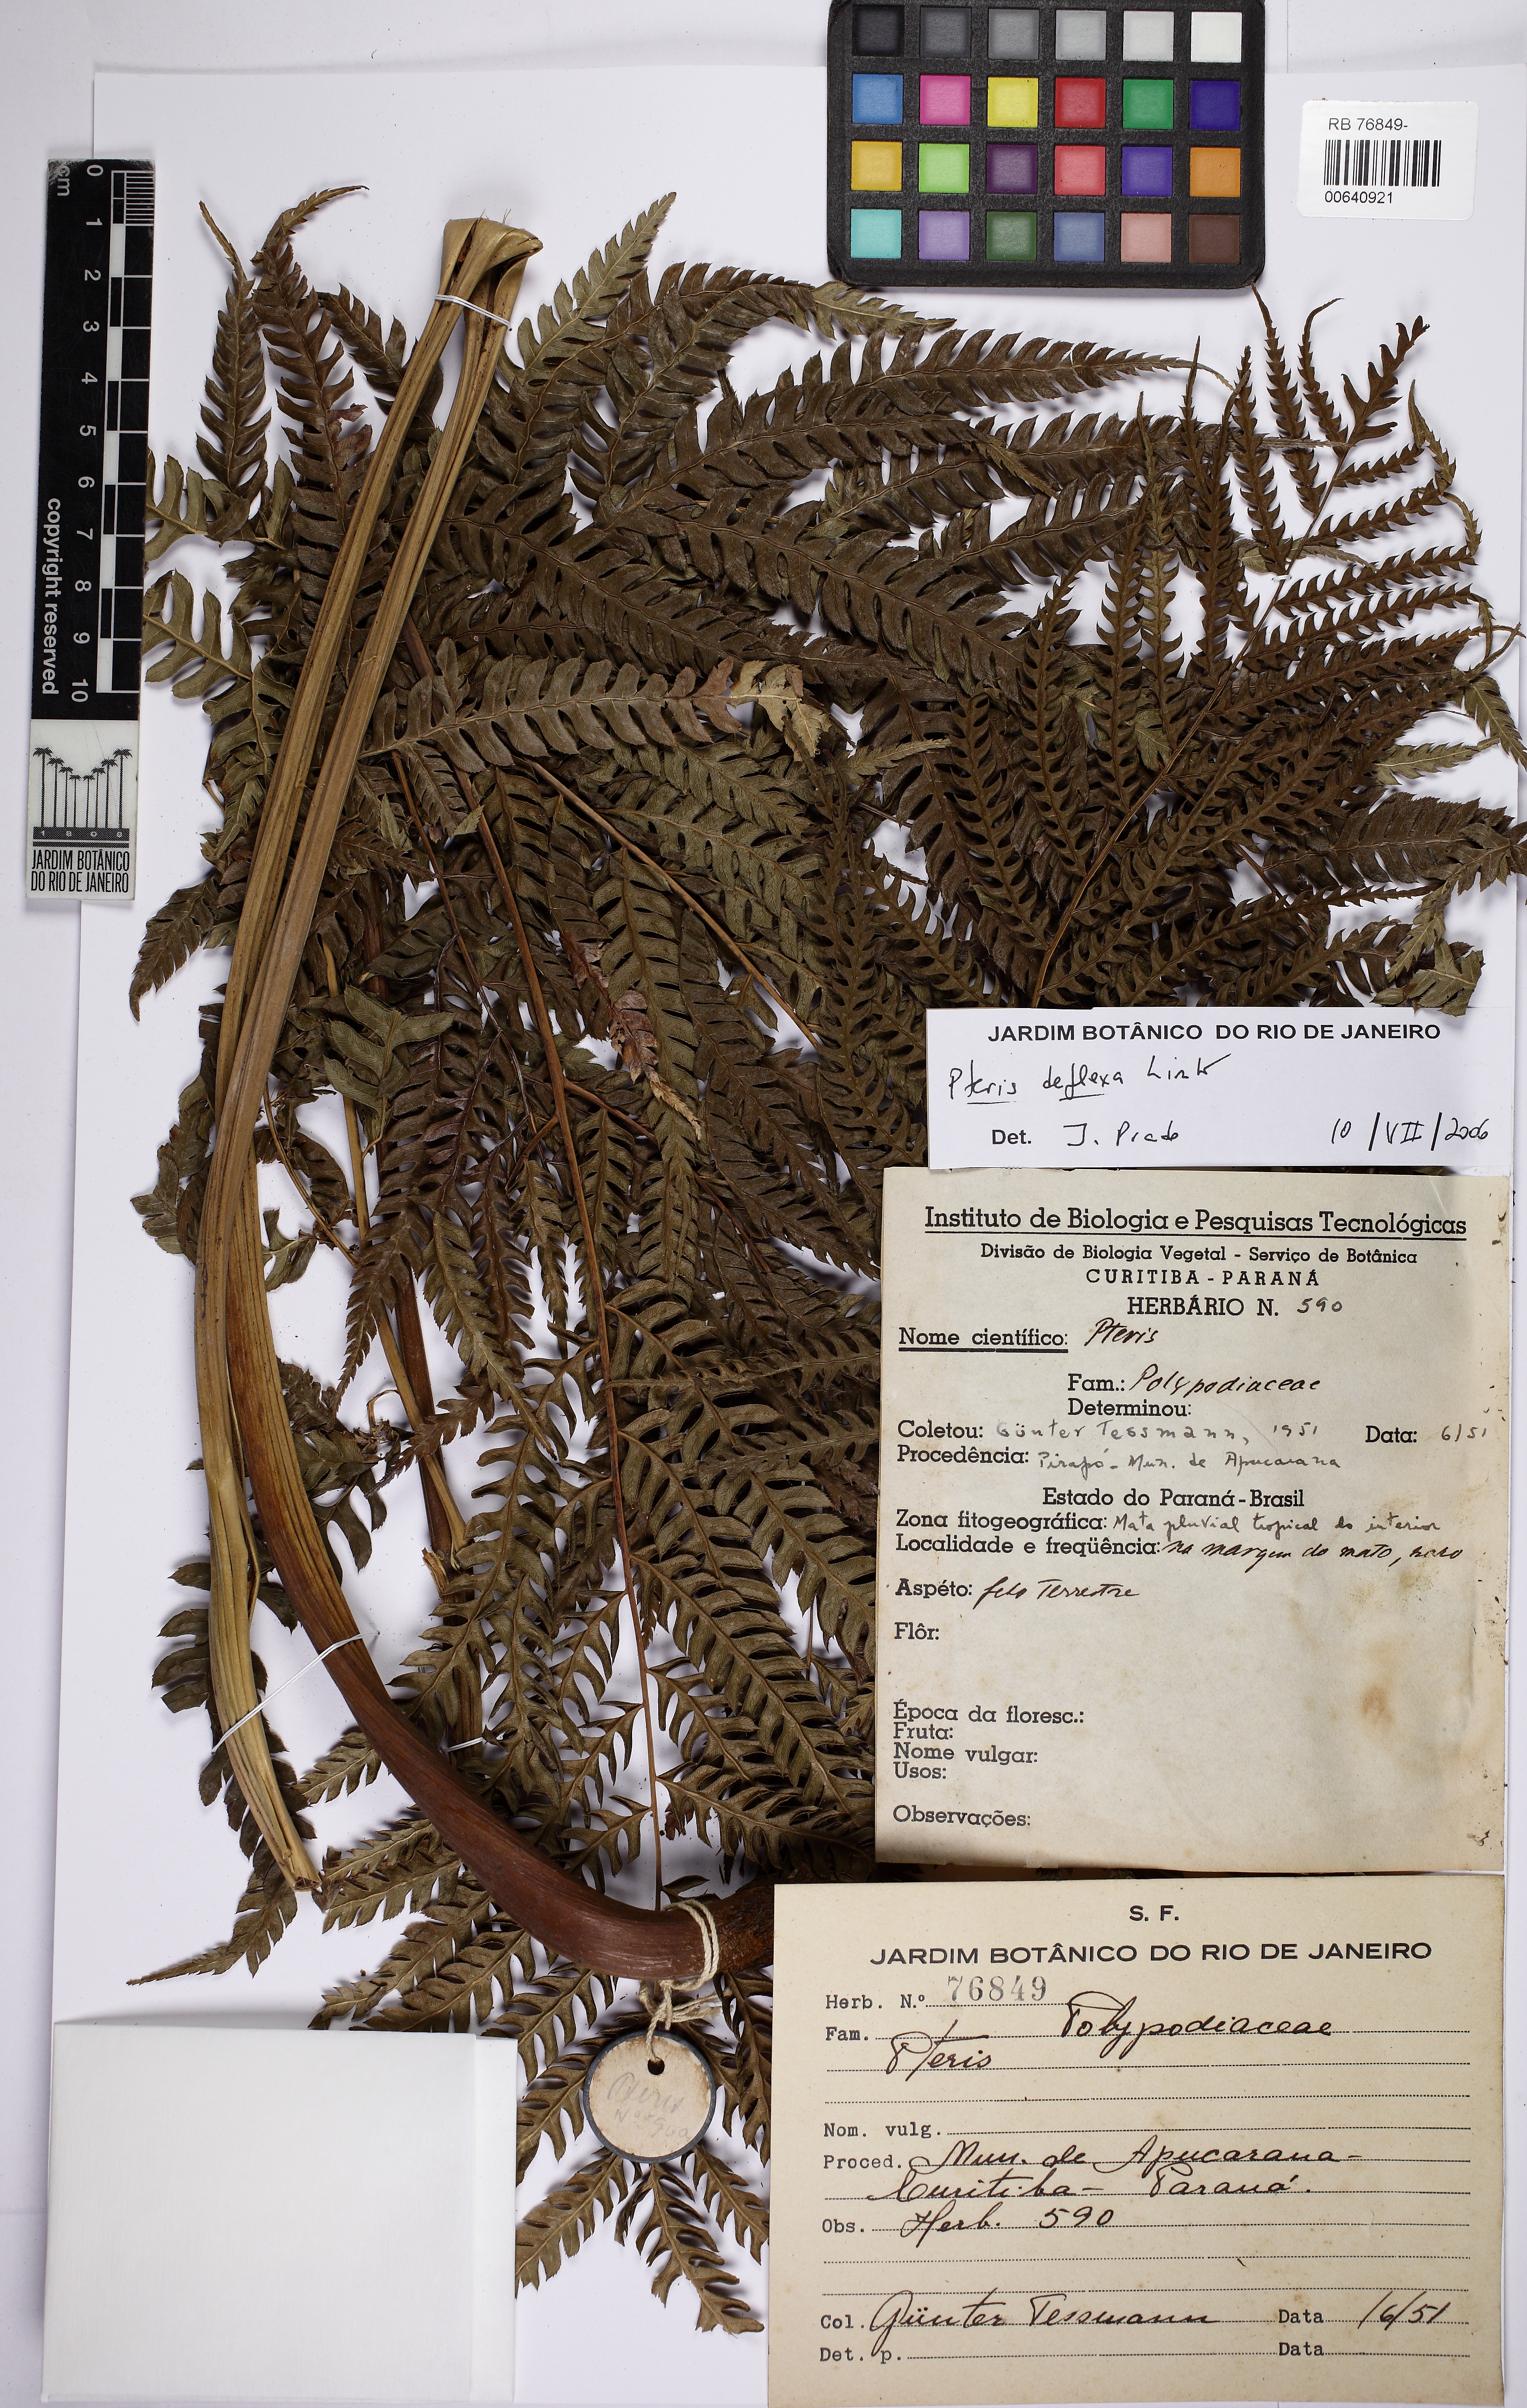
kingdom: Plantae
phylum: Tracheophyta
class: Polypodiopsida
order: Polypodiales
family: Pteridaceae
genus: Pteris
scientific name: Pteris deflexa
